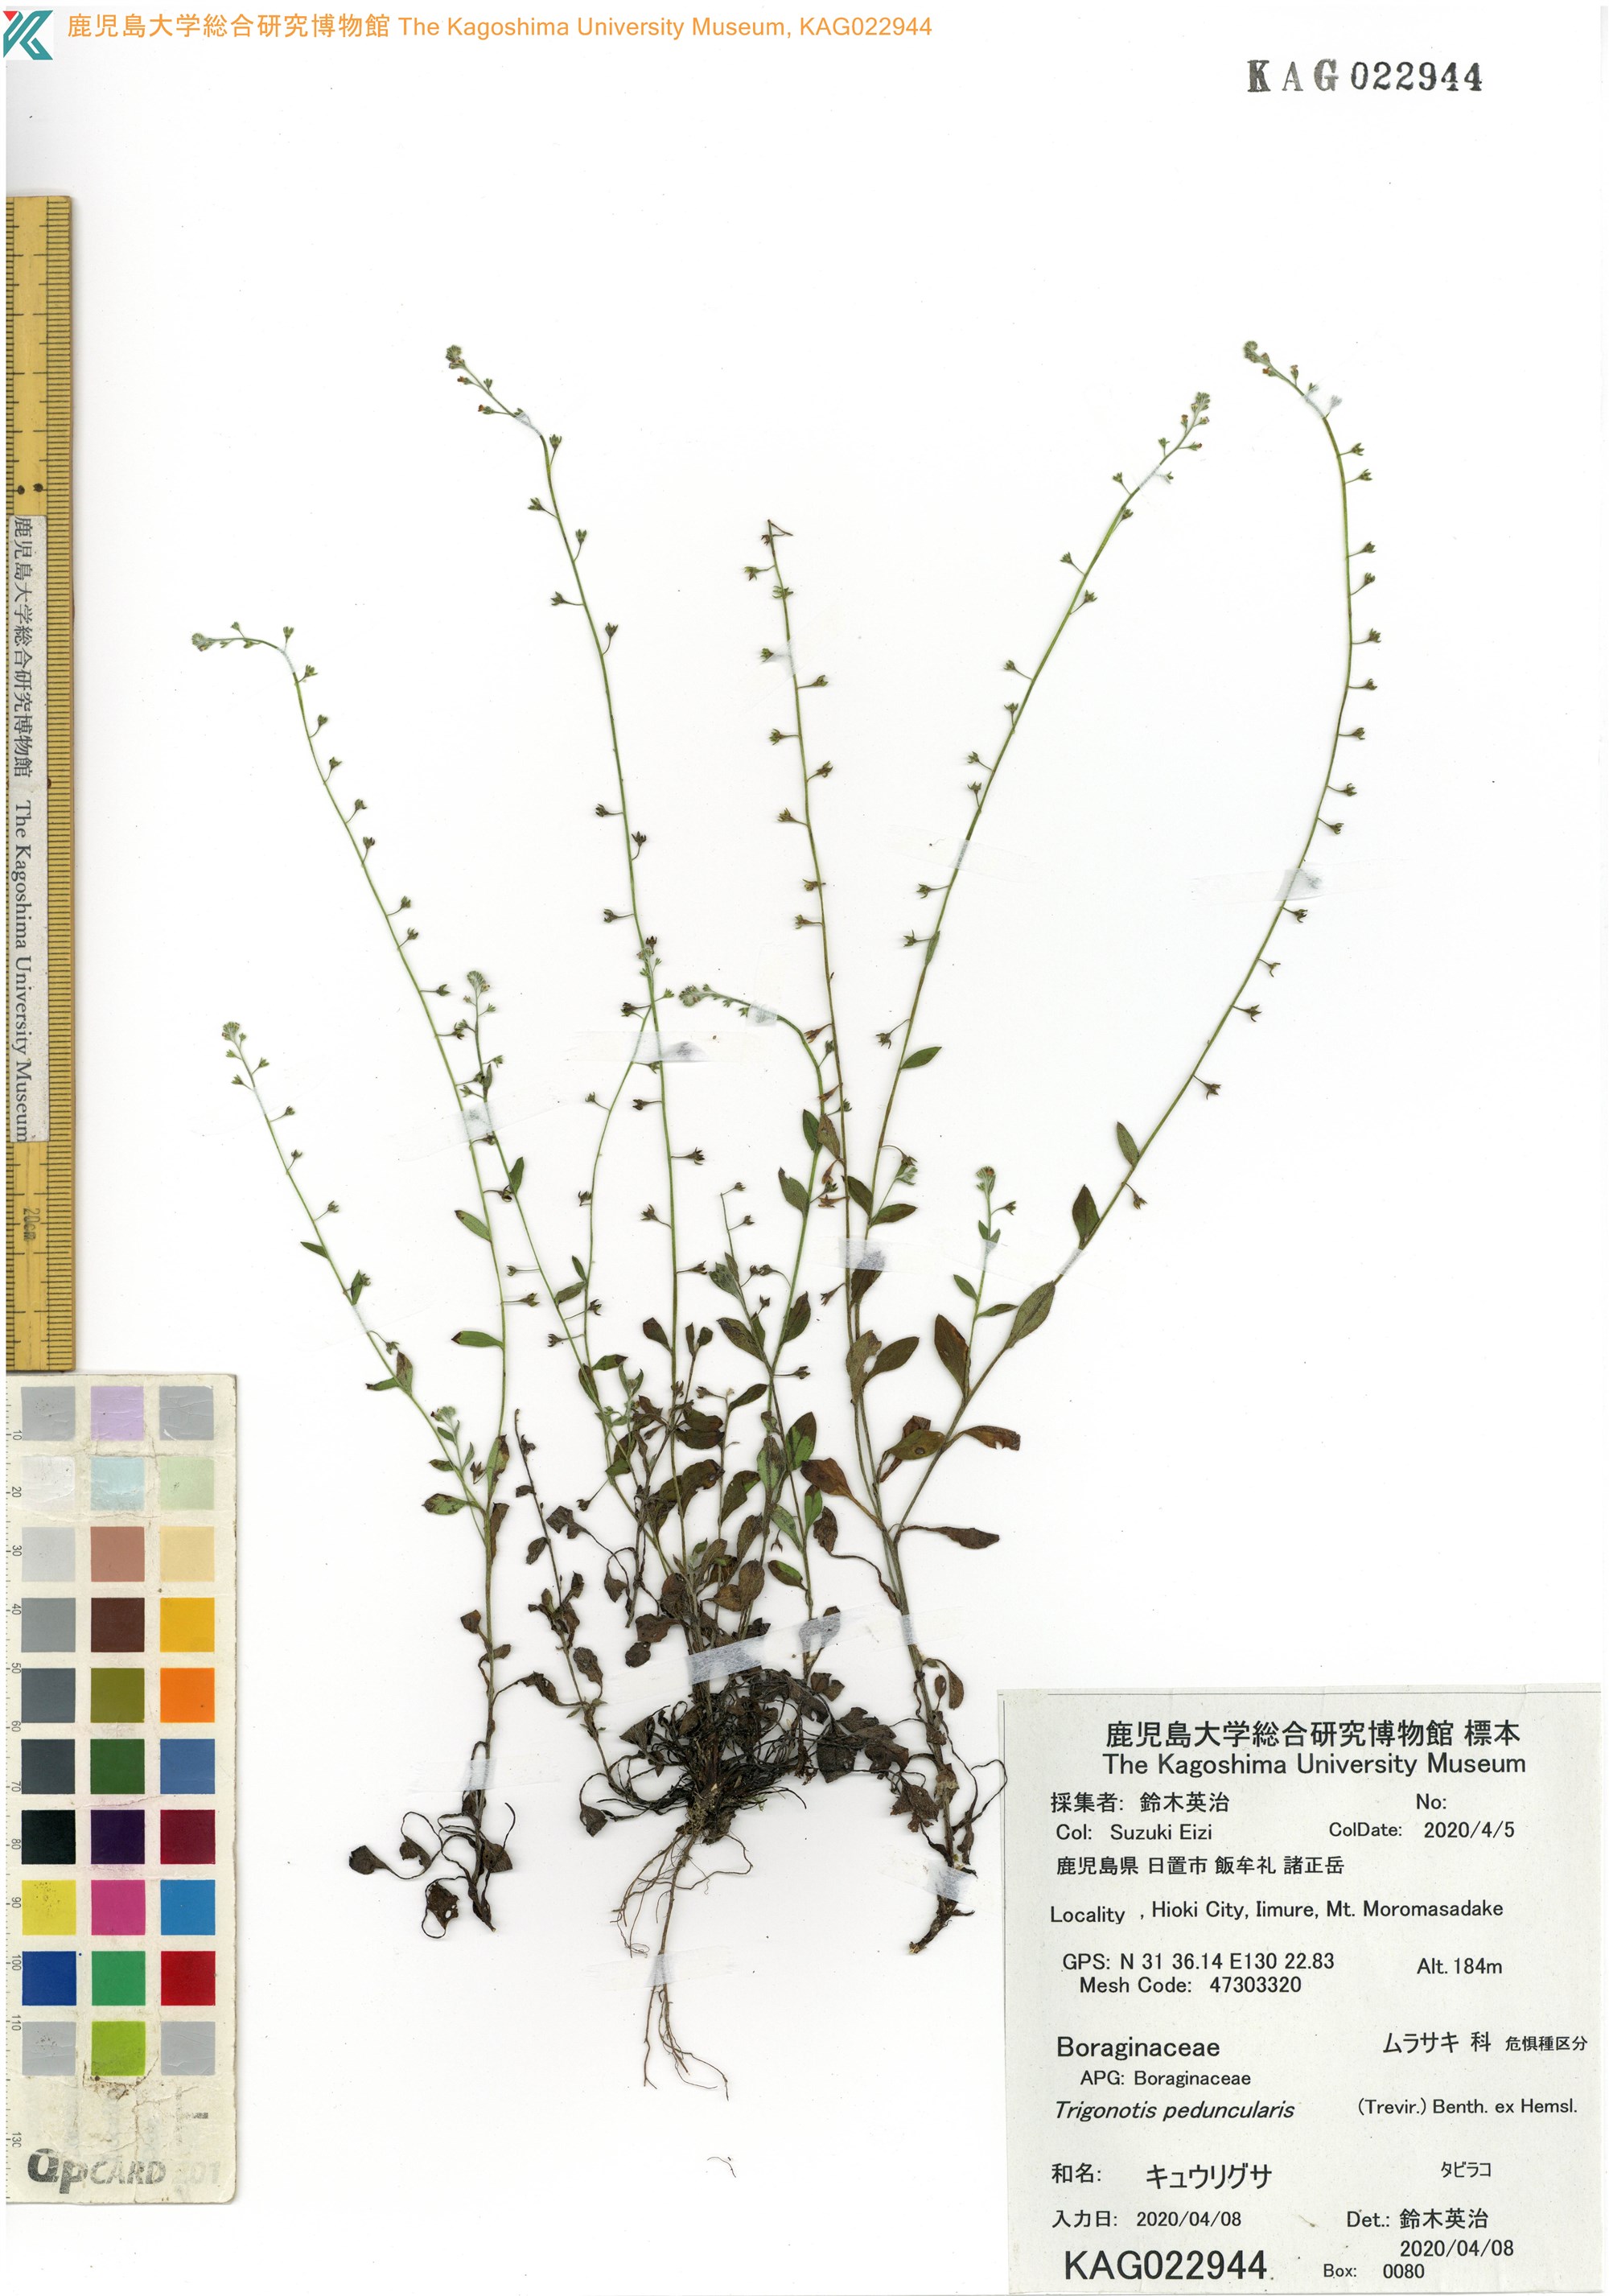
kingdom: Plantae
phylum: Tracheophyta
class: Magnoliopsida
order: Boraginales
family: Boraginaceae
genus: Trigonotis
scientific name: Trigonotis peduncularis
